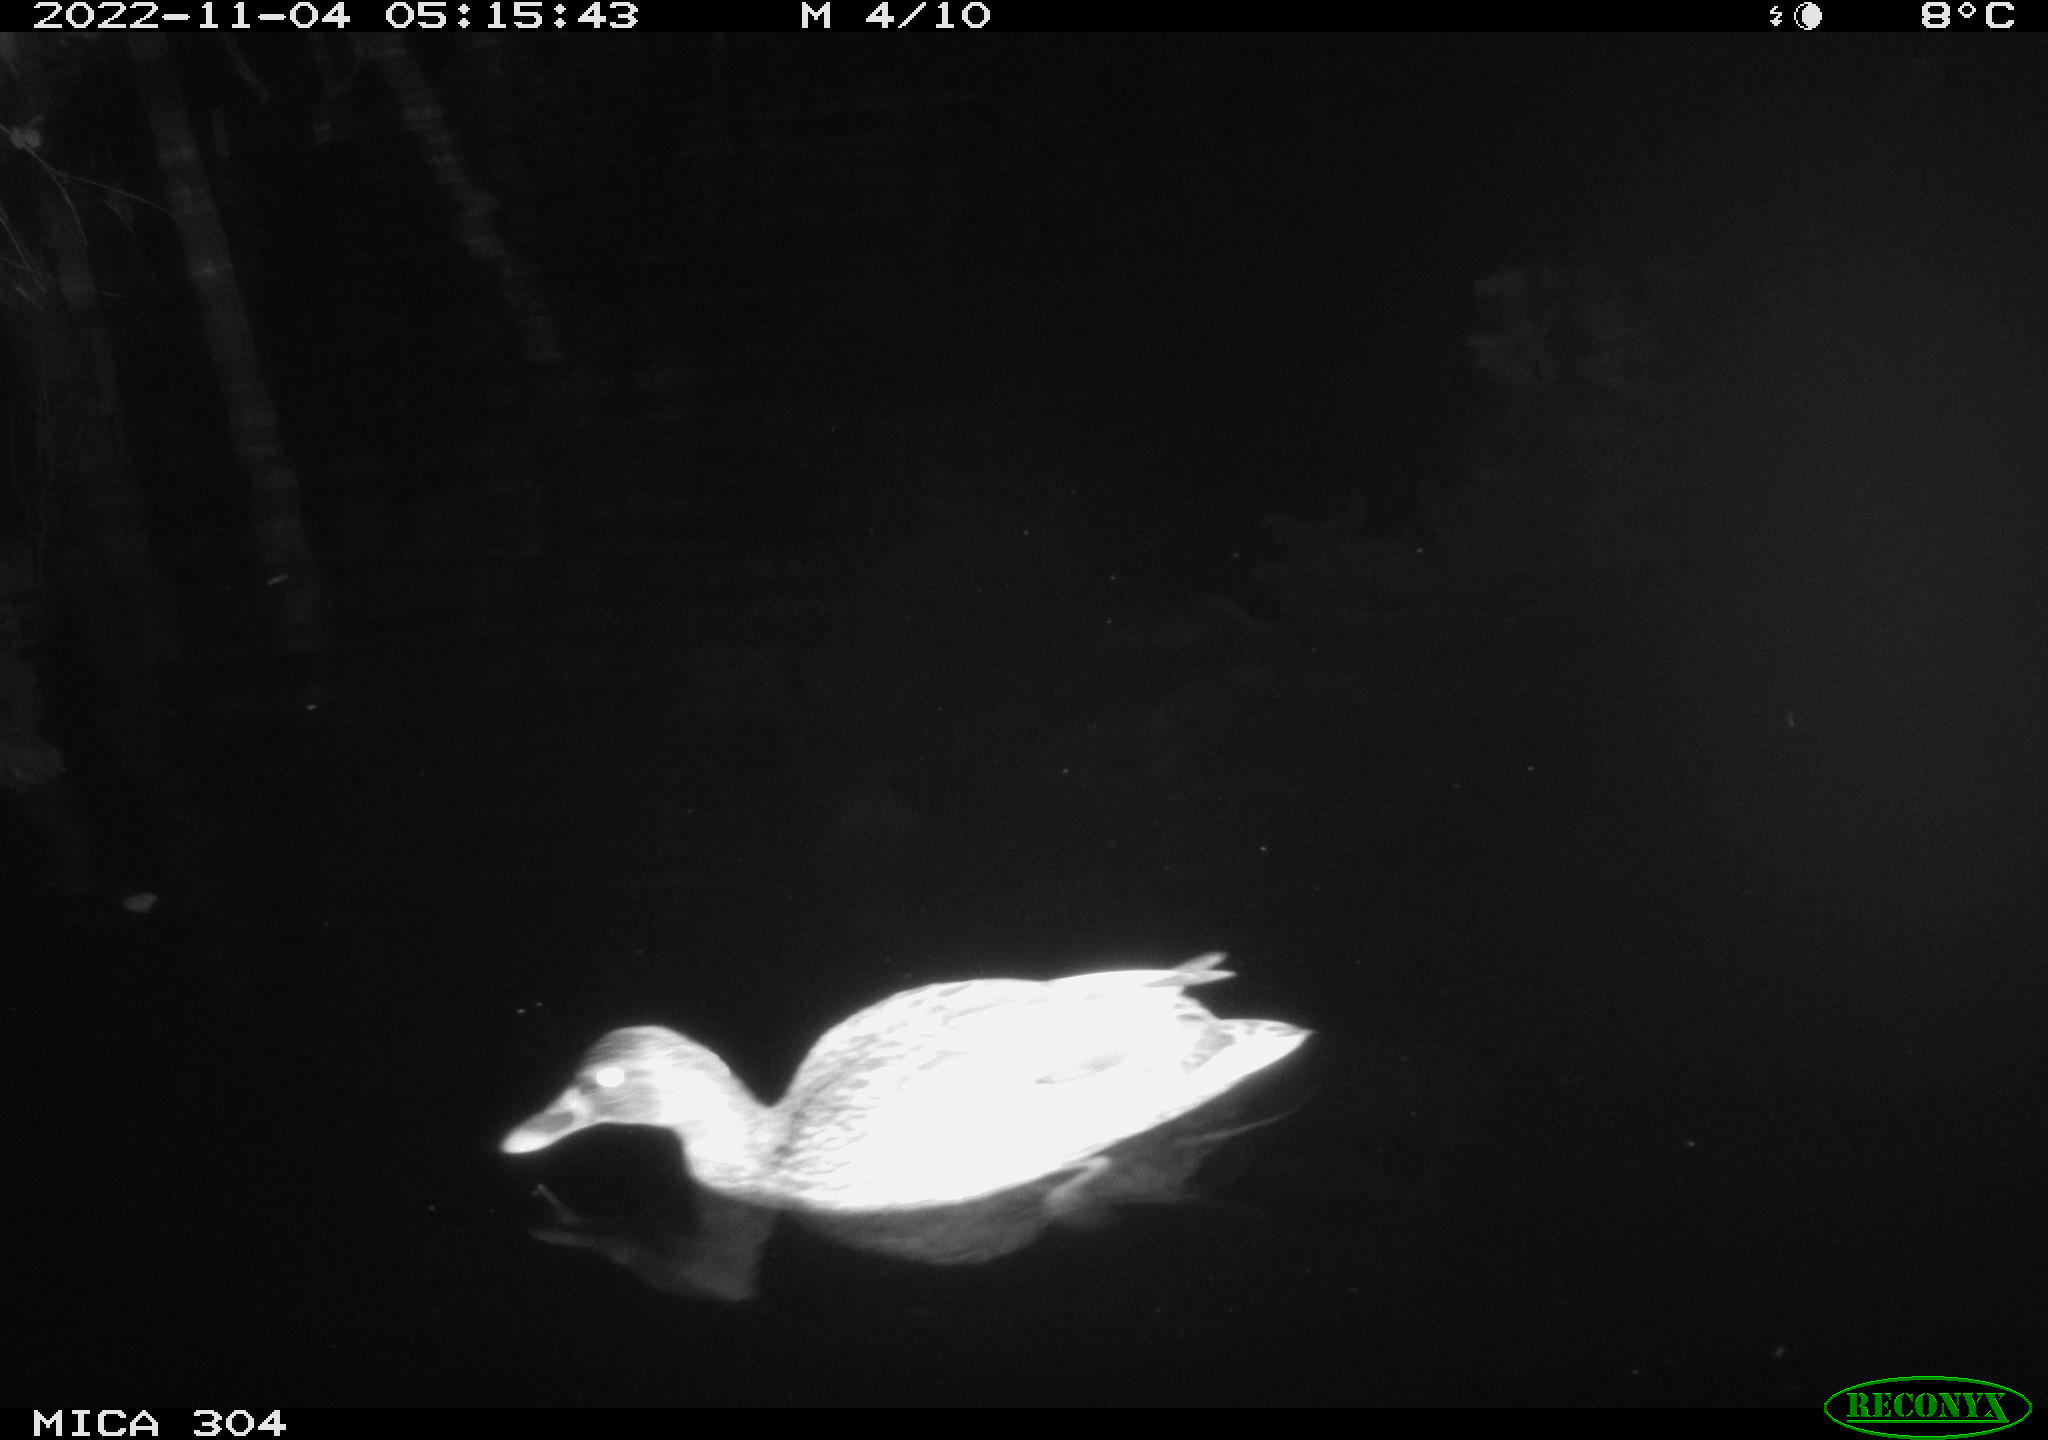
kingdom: Animalia
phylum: Chordata
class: Aves
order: Anseriformes
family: Anatidae
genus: Anas
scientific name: Anas
